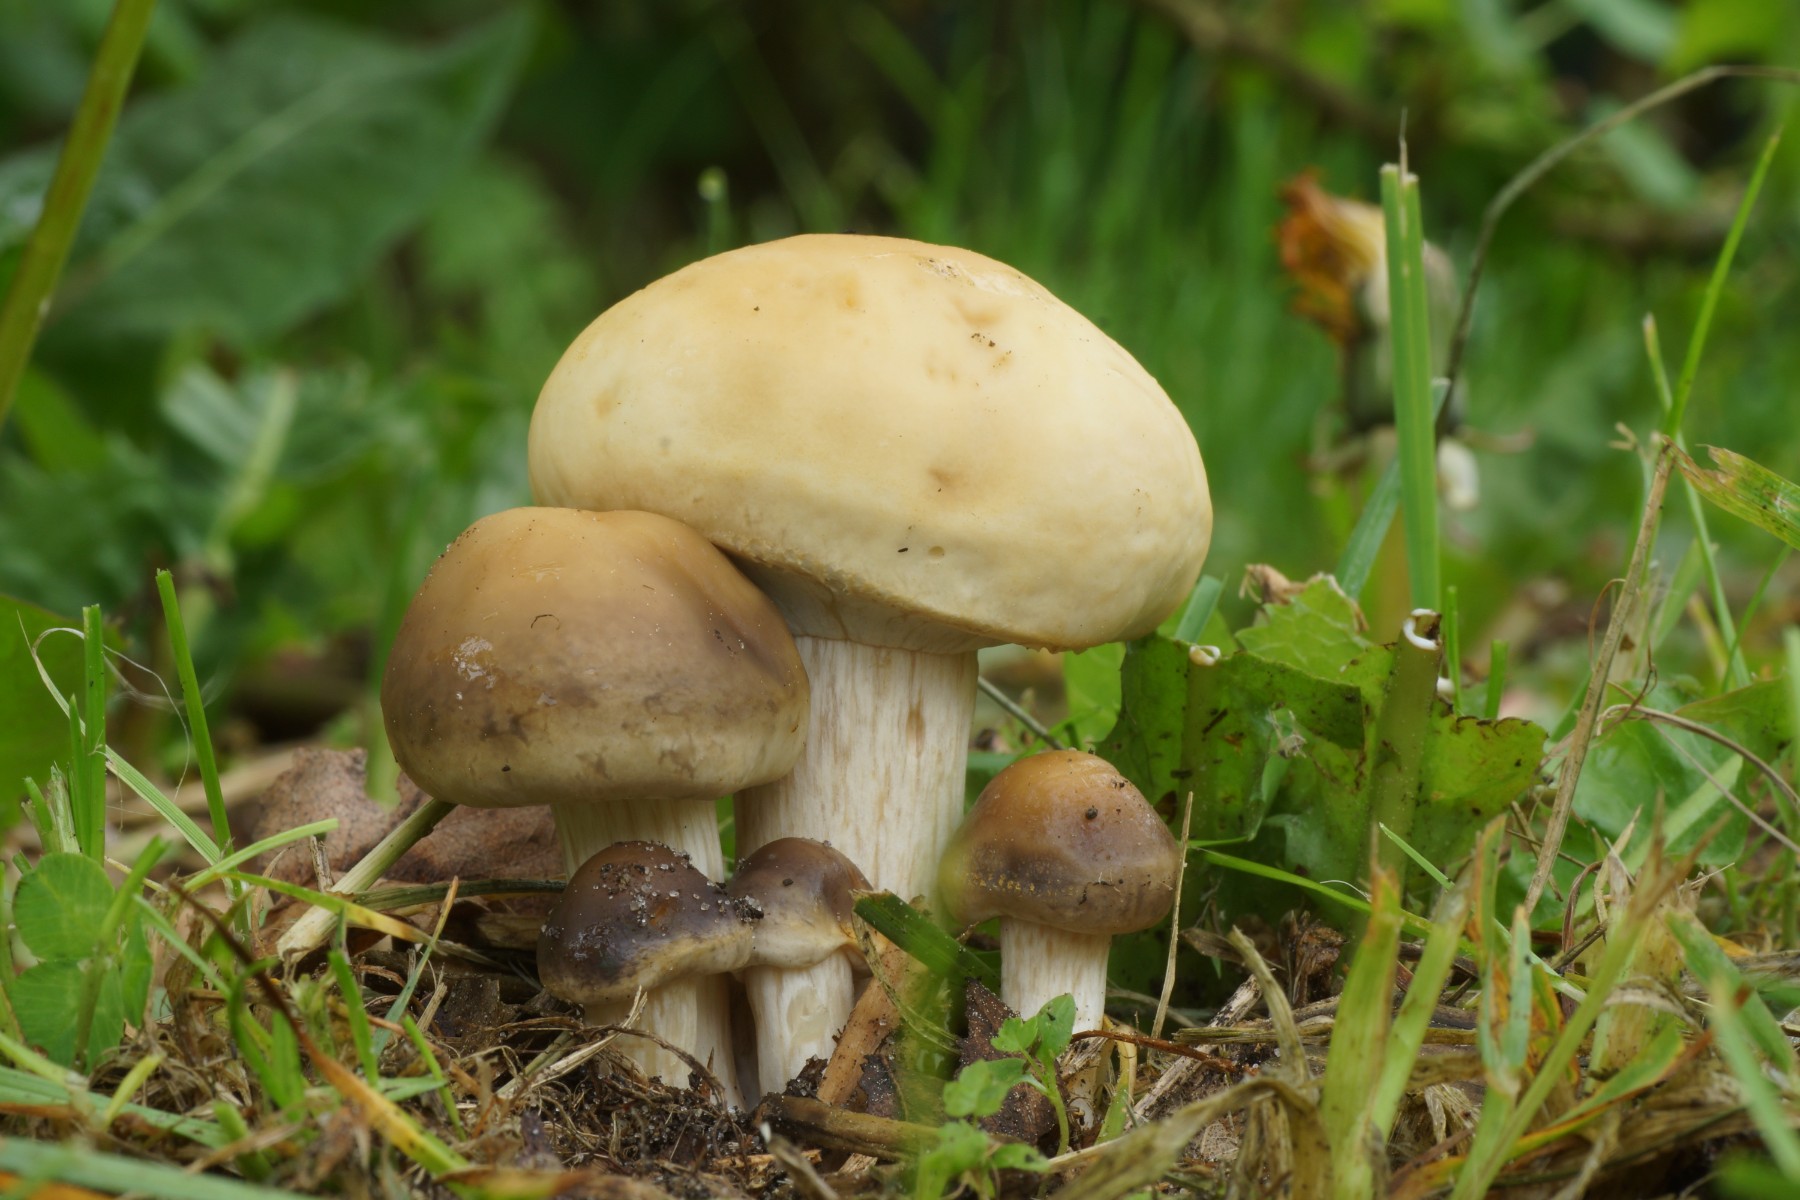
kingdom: Fungi
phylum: Basidiomycota
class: Agaricomycetes
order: Agaricales
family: Strophariaceae
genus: Agrocybe
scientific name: Agrocybe praecox
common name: tidlig agerhat
